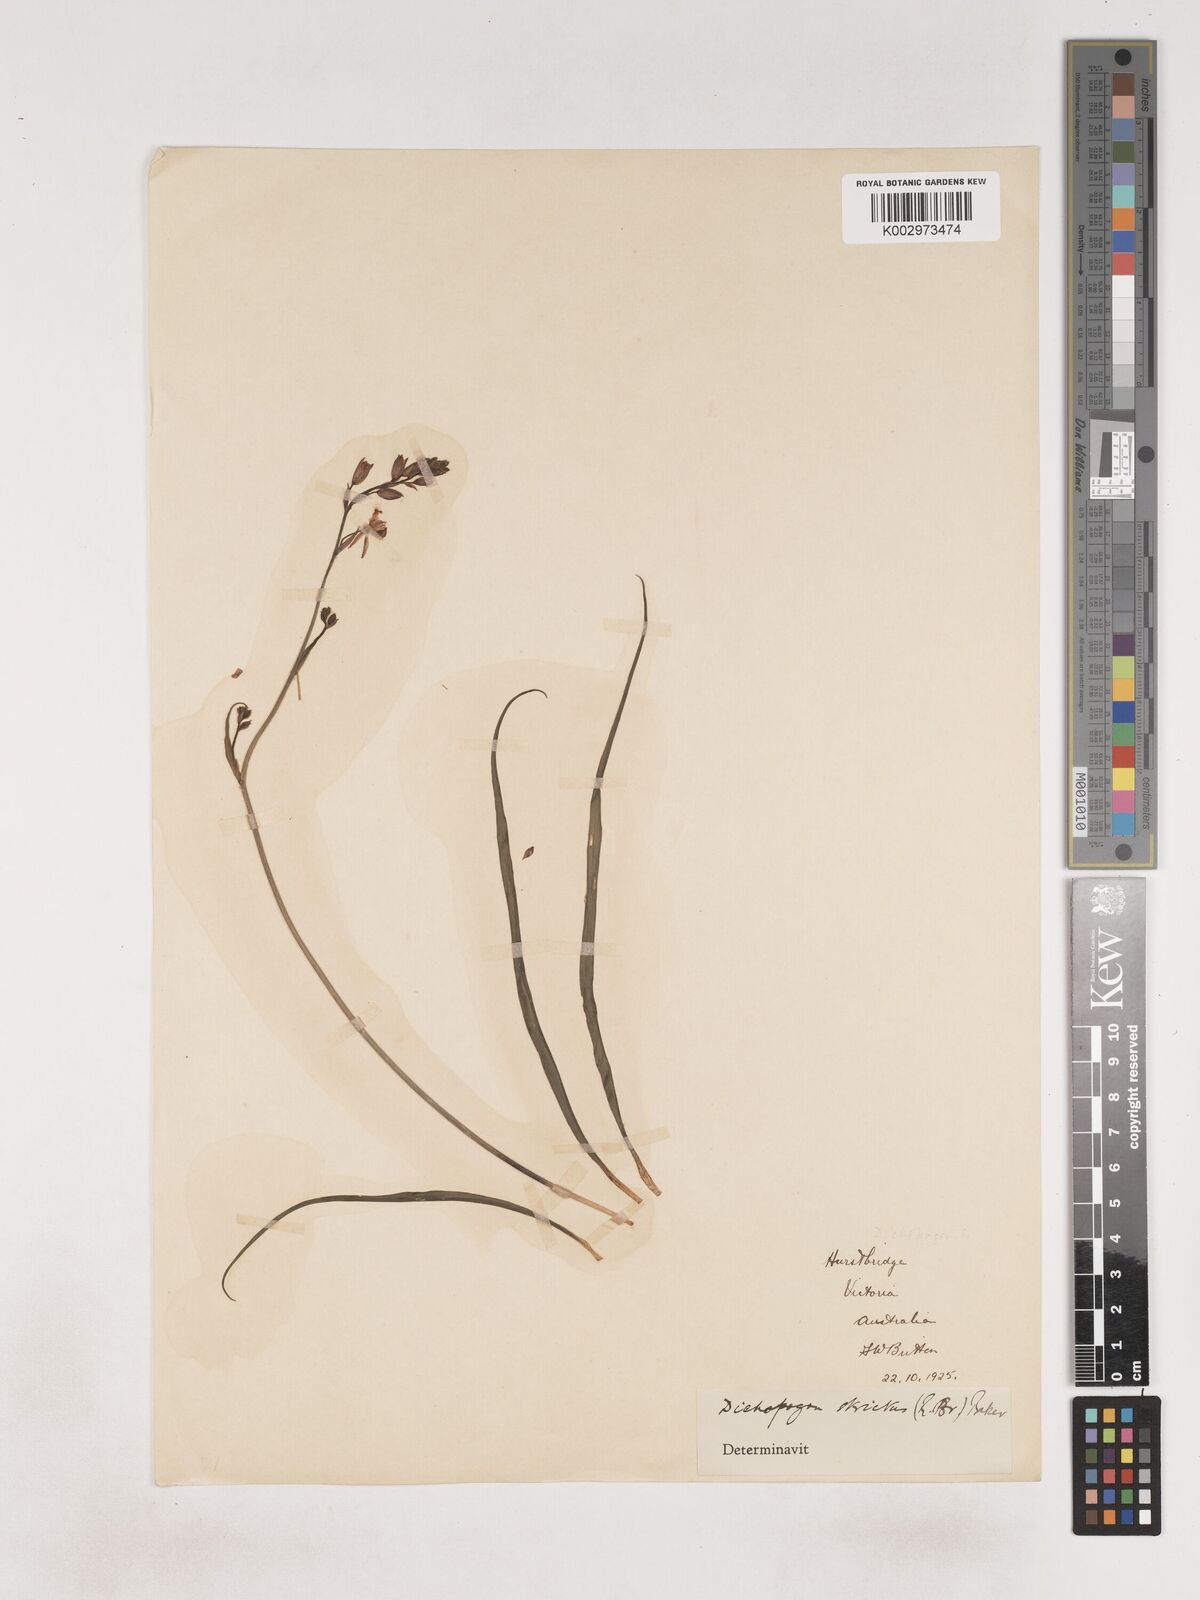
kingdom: Plantae
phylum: Tracheophyta
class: Liliopsida
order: Asparagales
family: Asparagaceae
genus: Arthropodium
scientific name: Arthropodium strictum
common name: Chocolate-lily
